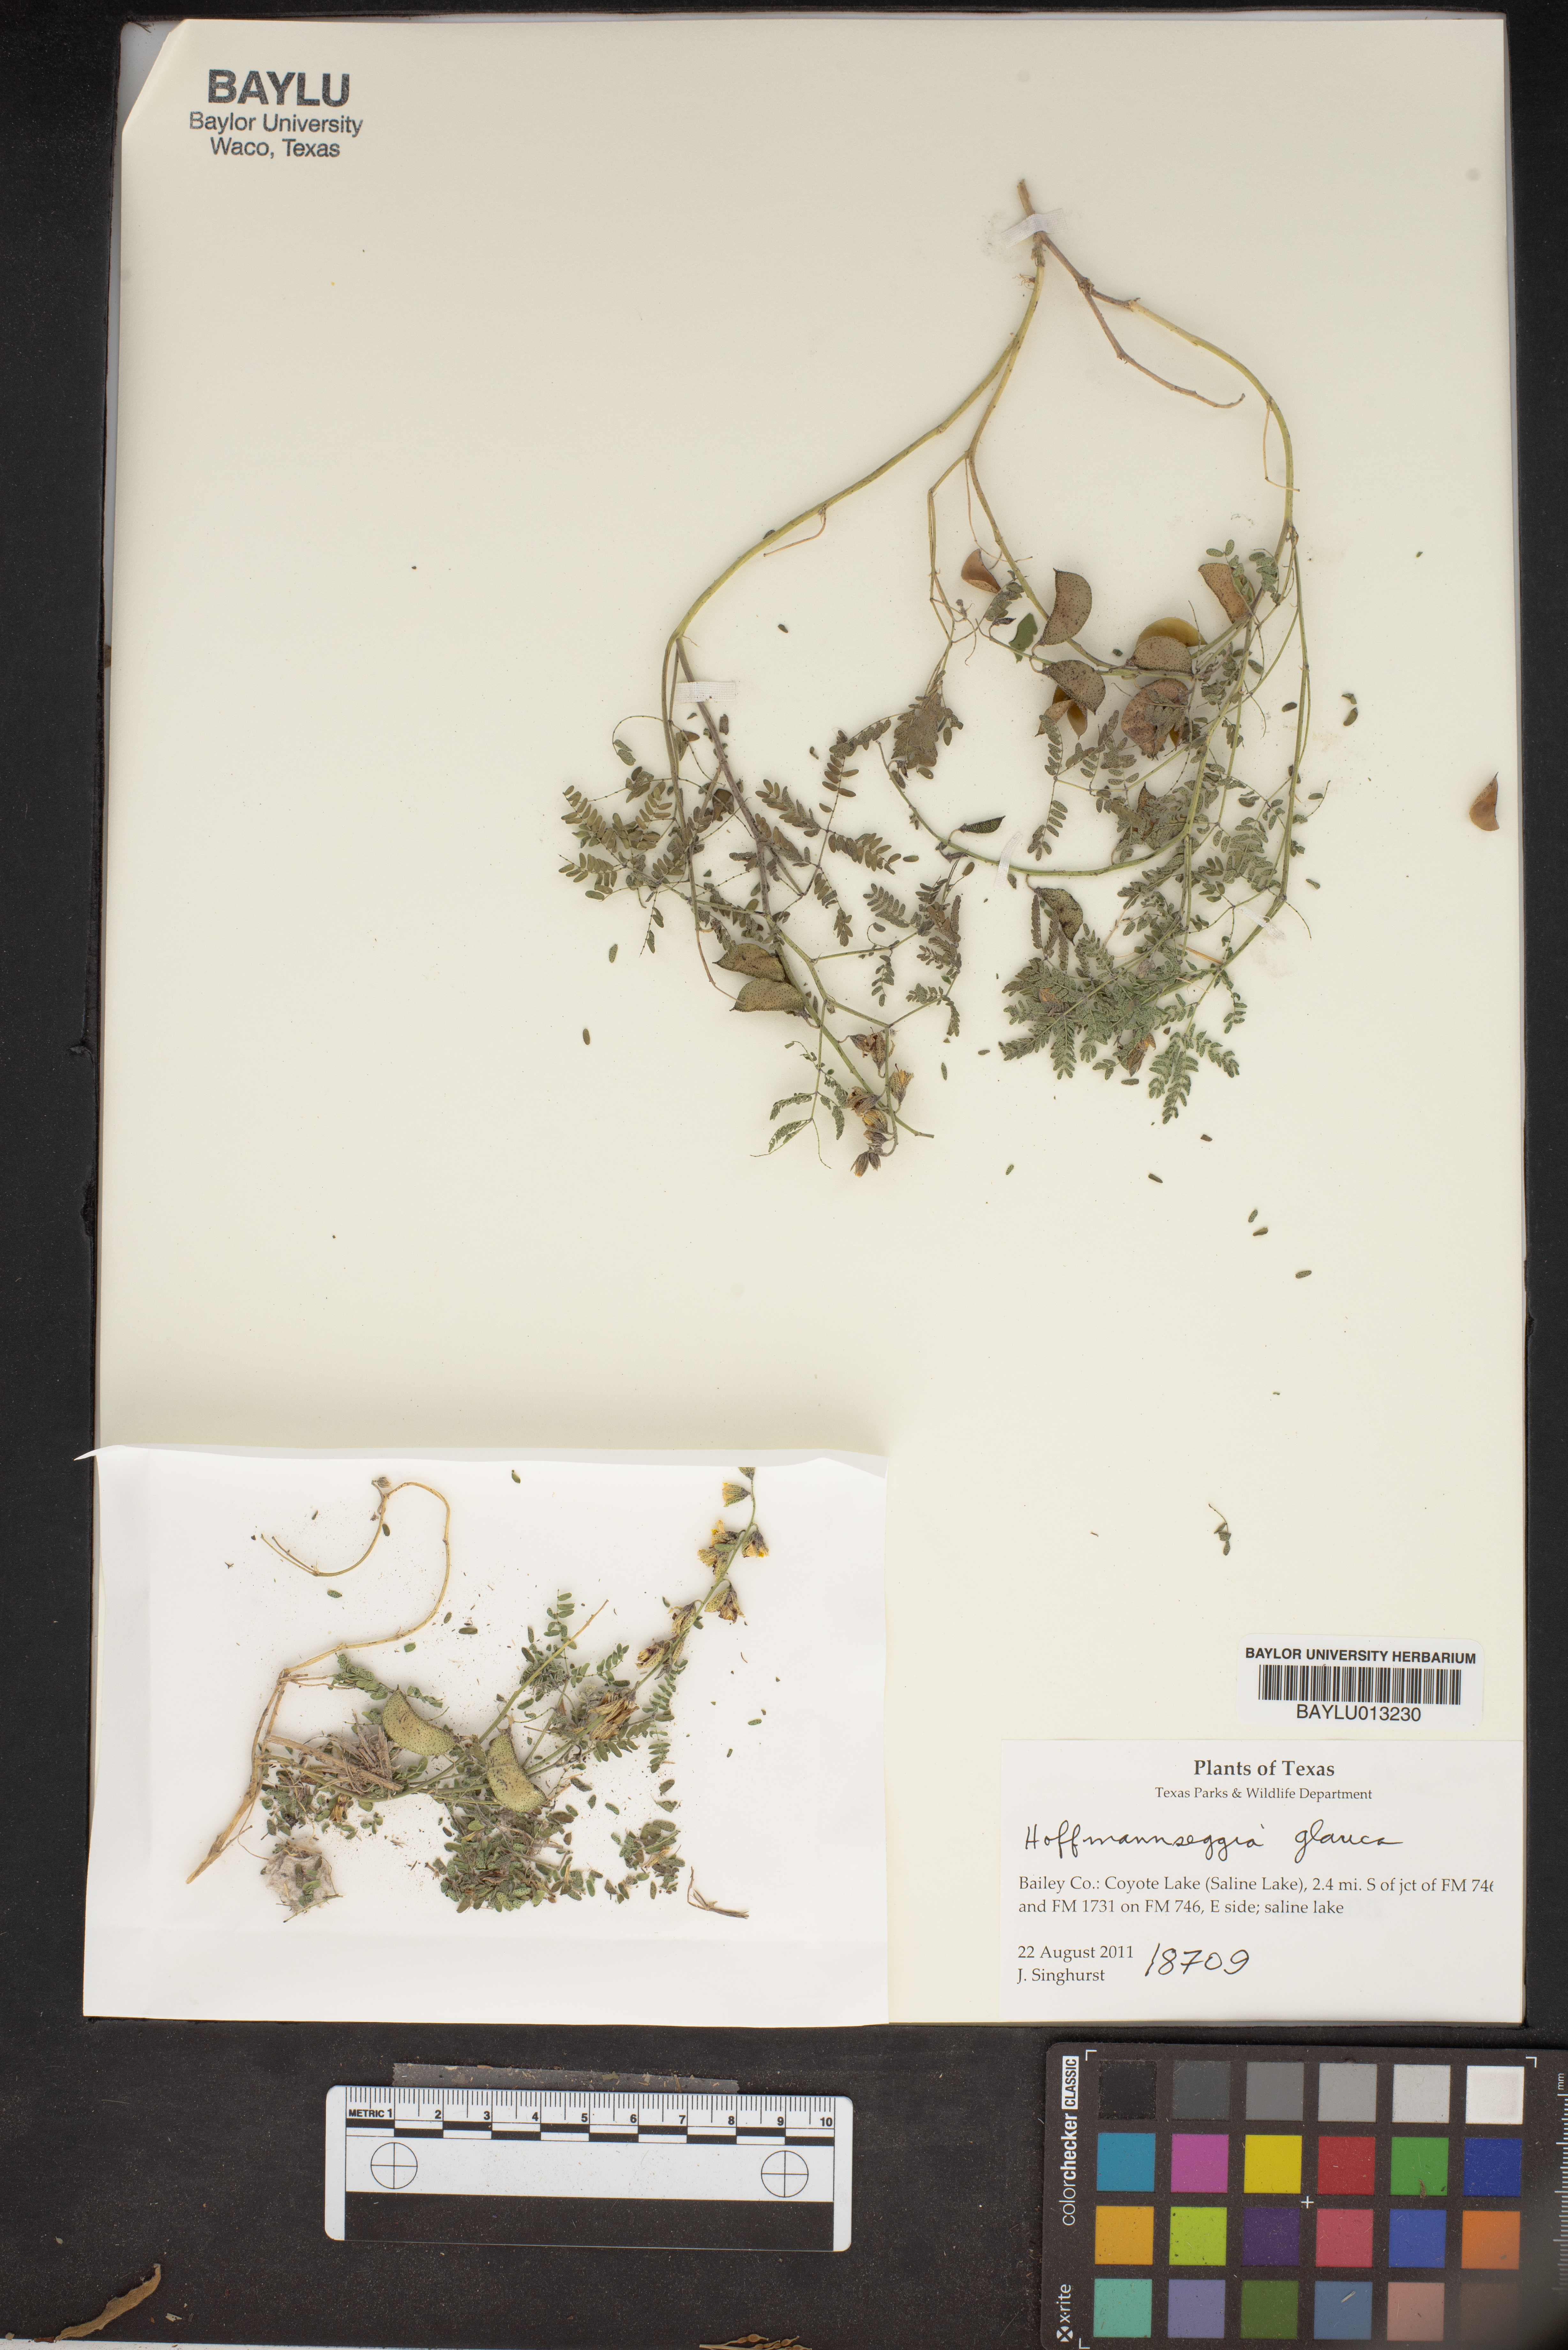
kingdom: Plantae
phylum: Tracheophyta
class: Magnoliopsida
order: Fabales
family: Fabaceae
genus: Hoffmannseggia
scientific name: Hoffmannseggia glauca
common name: Pignut
